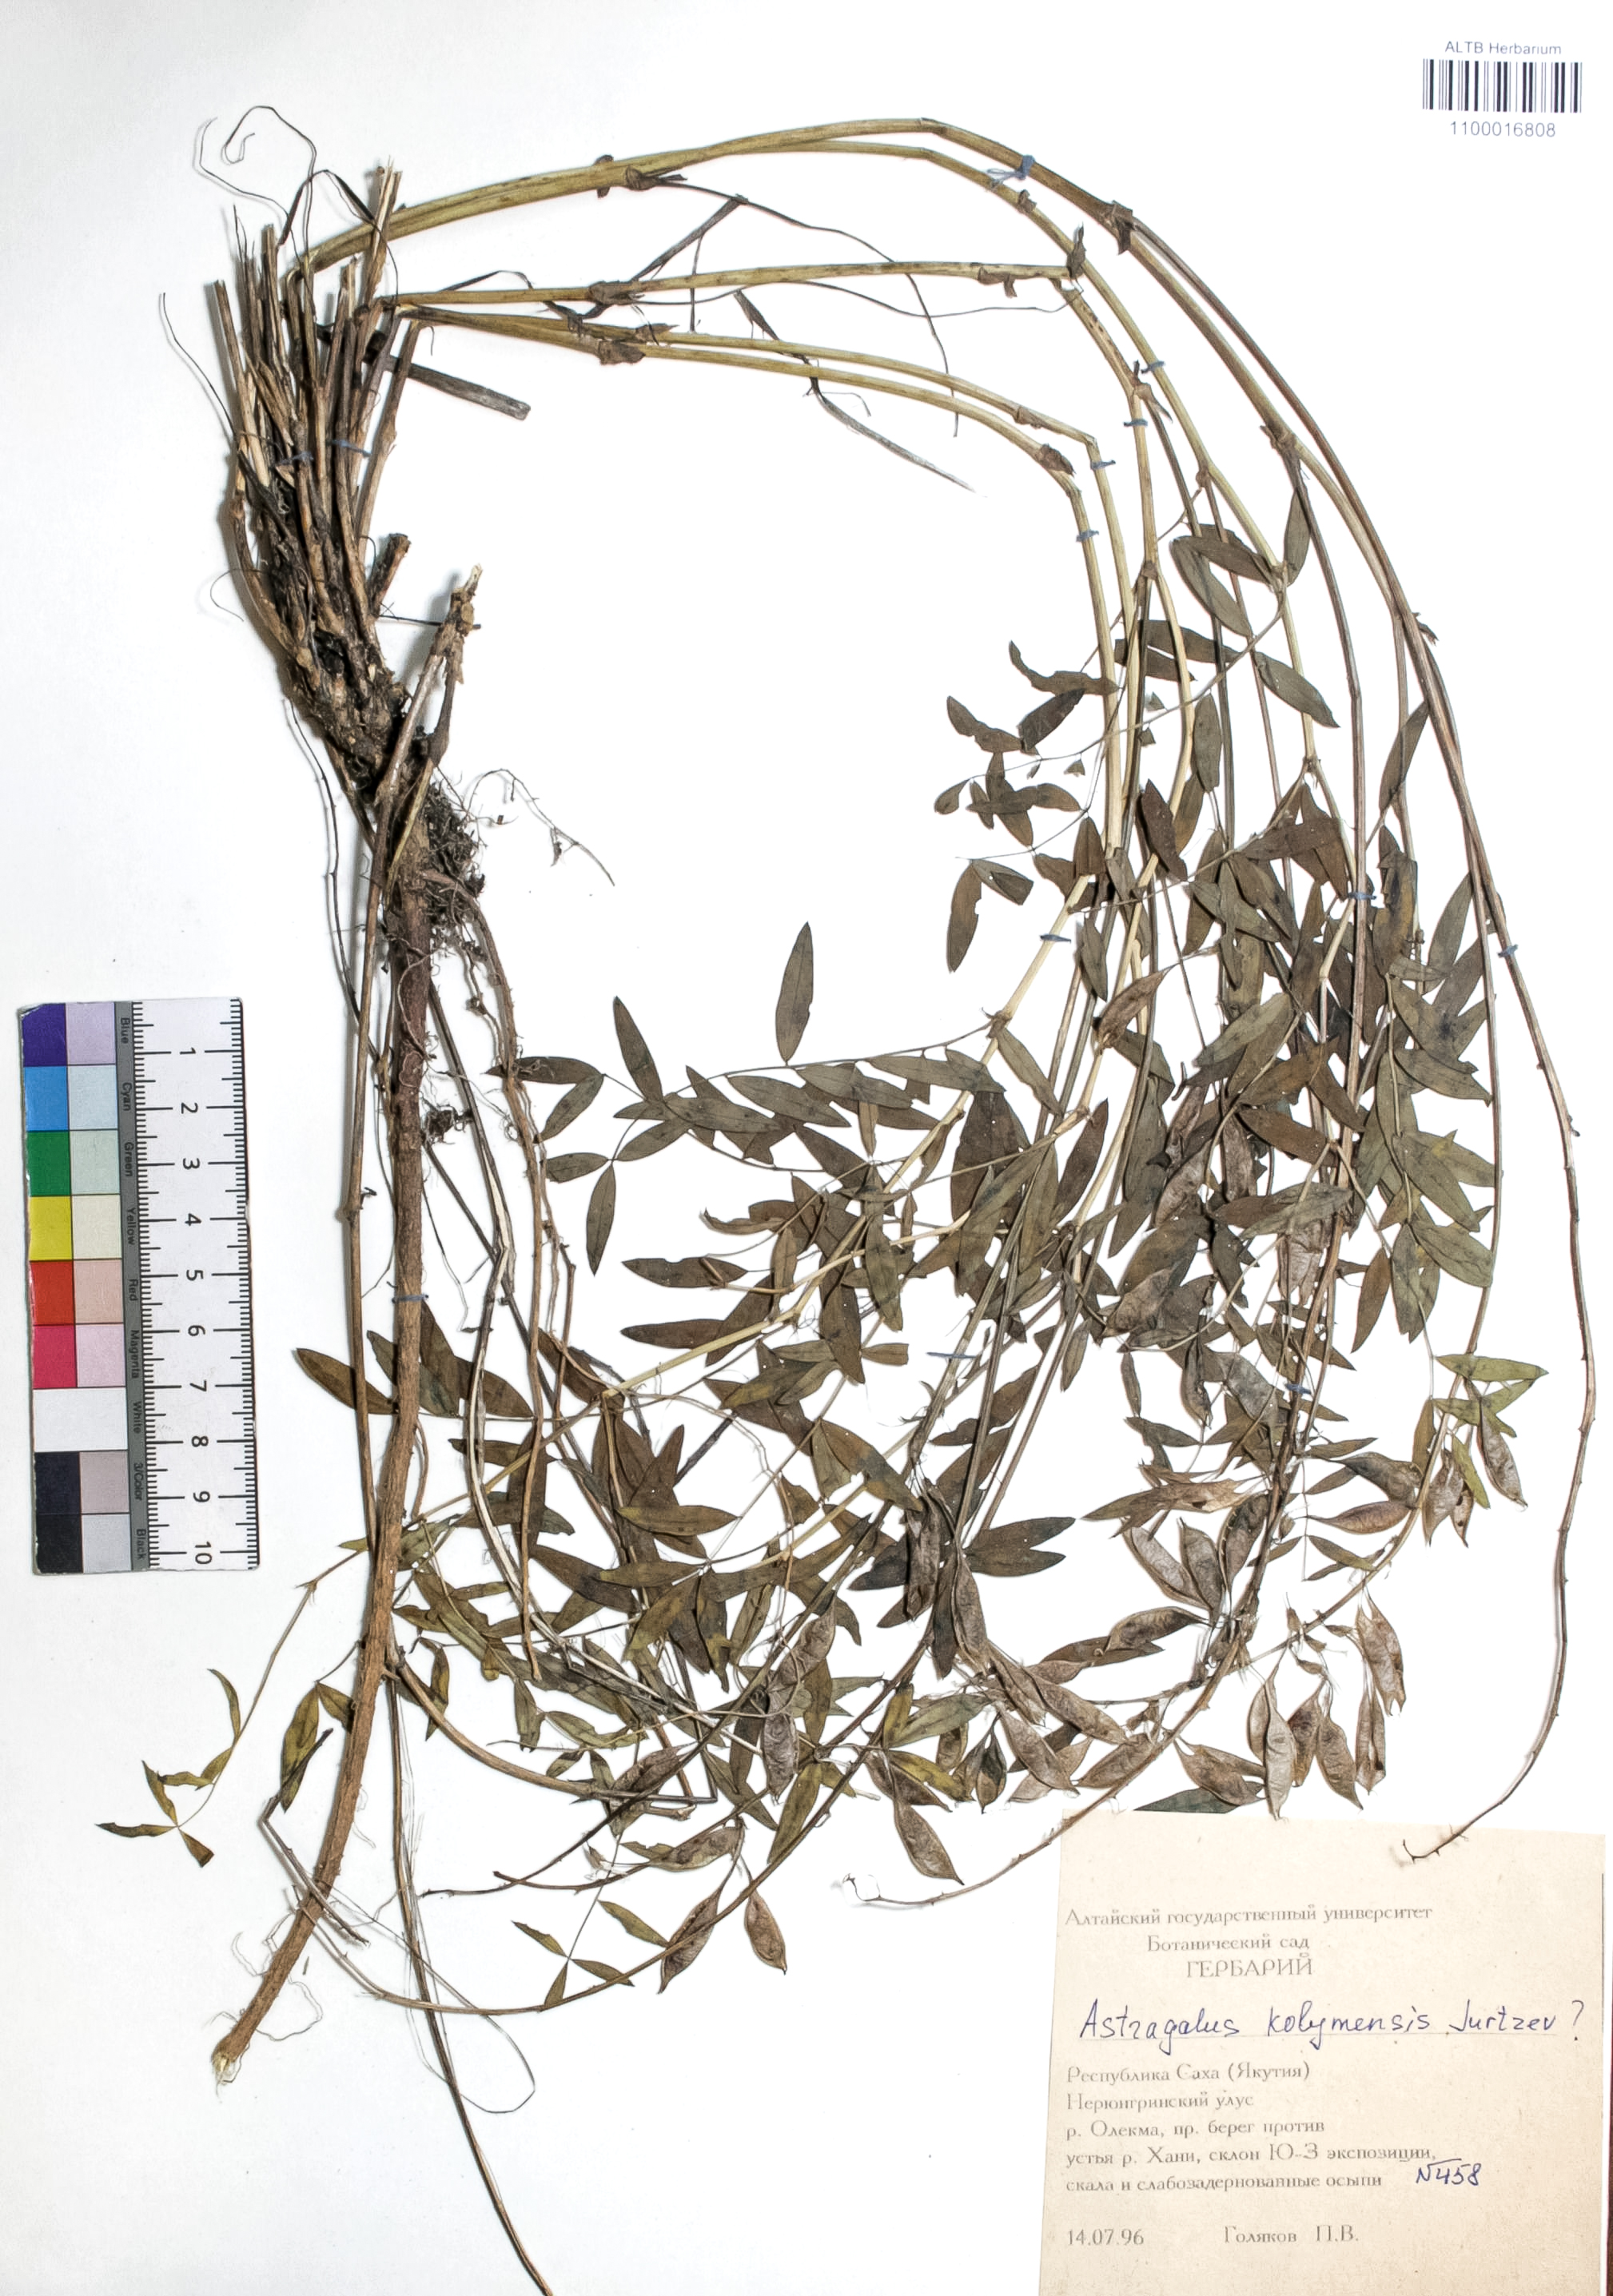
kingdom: Plantae
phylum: Tracheophyta
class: Magnoliopsida
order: Fabales
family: Fabaceae
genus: Astragalus
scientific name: Astragalus kolymensis
